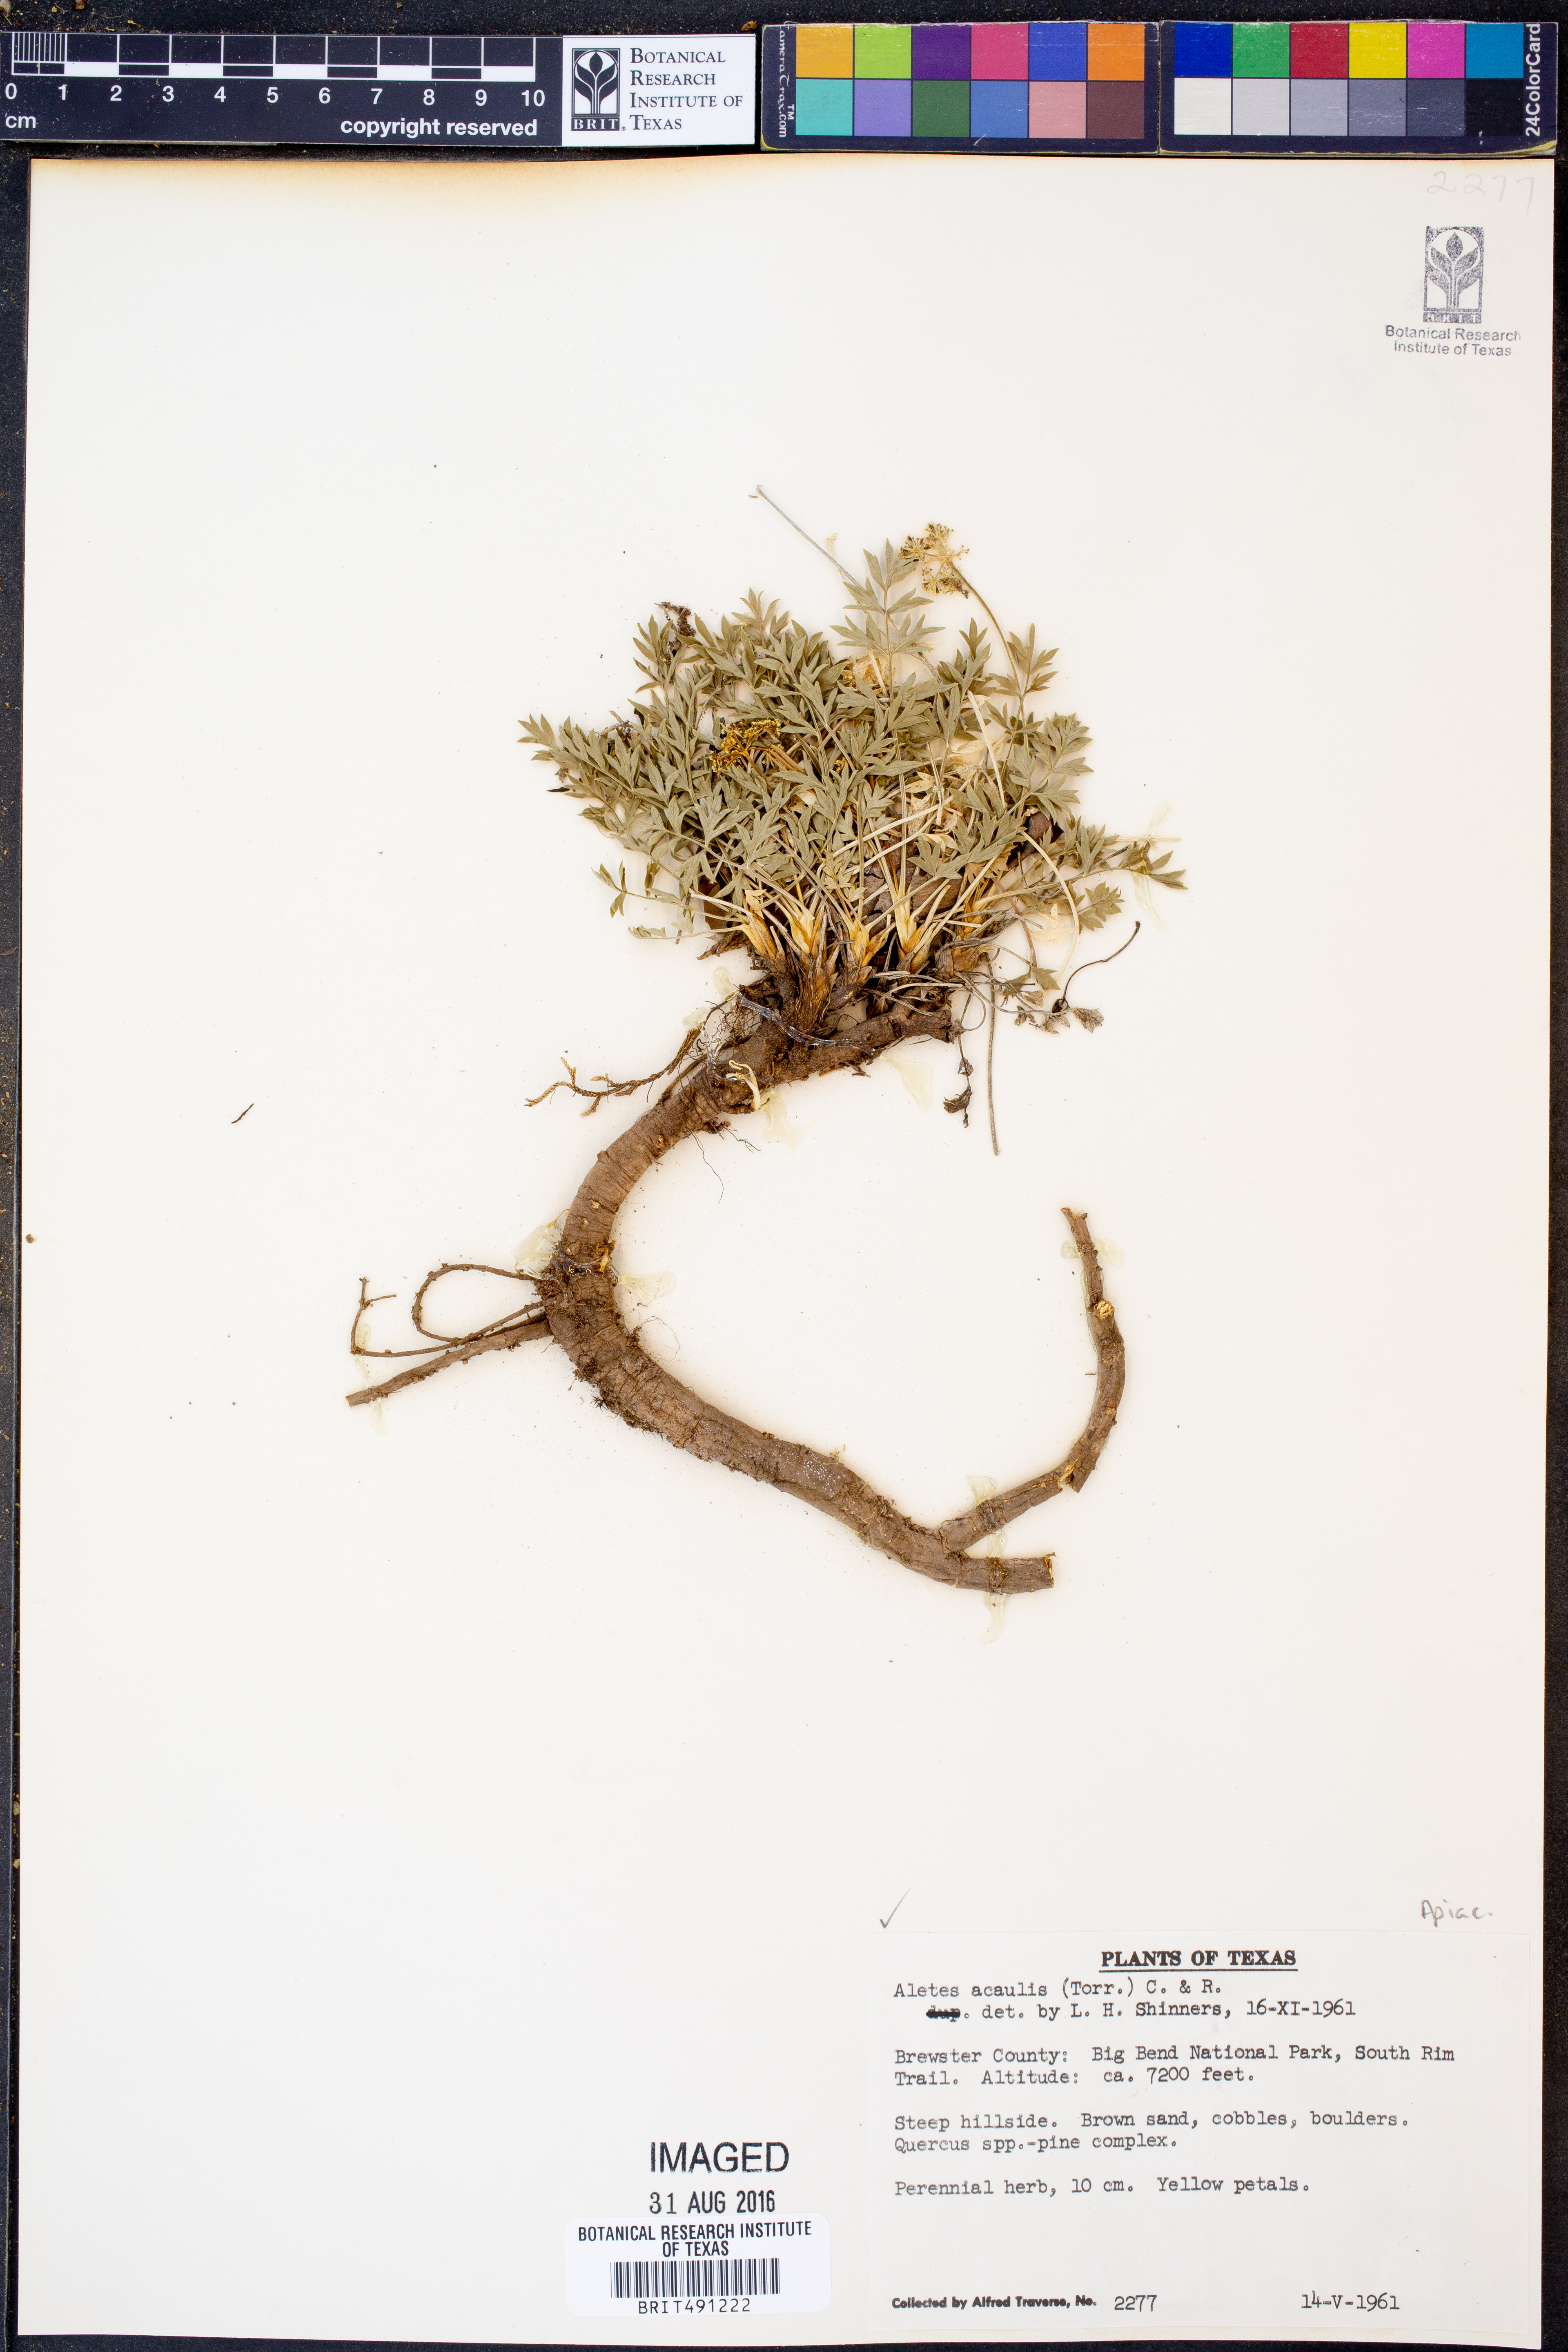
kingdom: Plantae
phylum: Tracheophyta
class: Magnoliopsida
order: Apiales
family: Apiaceae
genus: Cymopterus
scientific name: Cymopterus hallii
